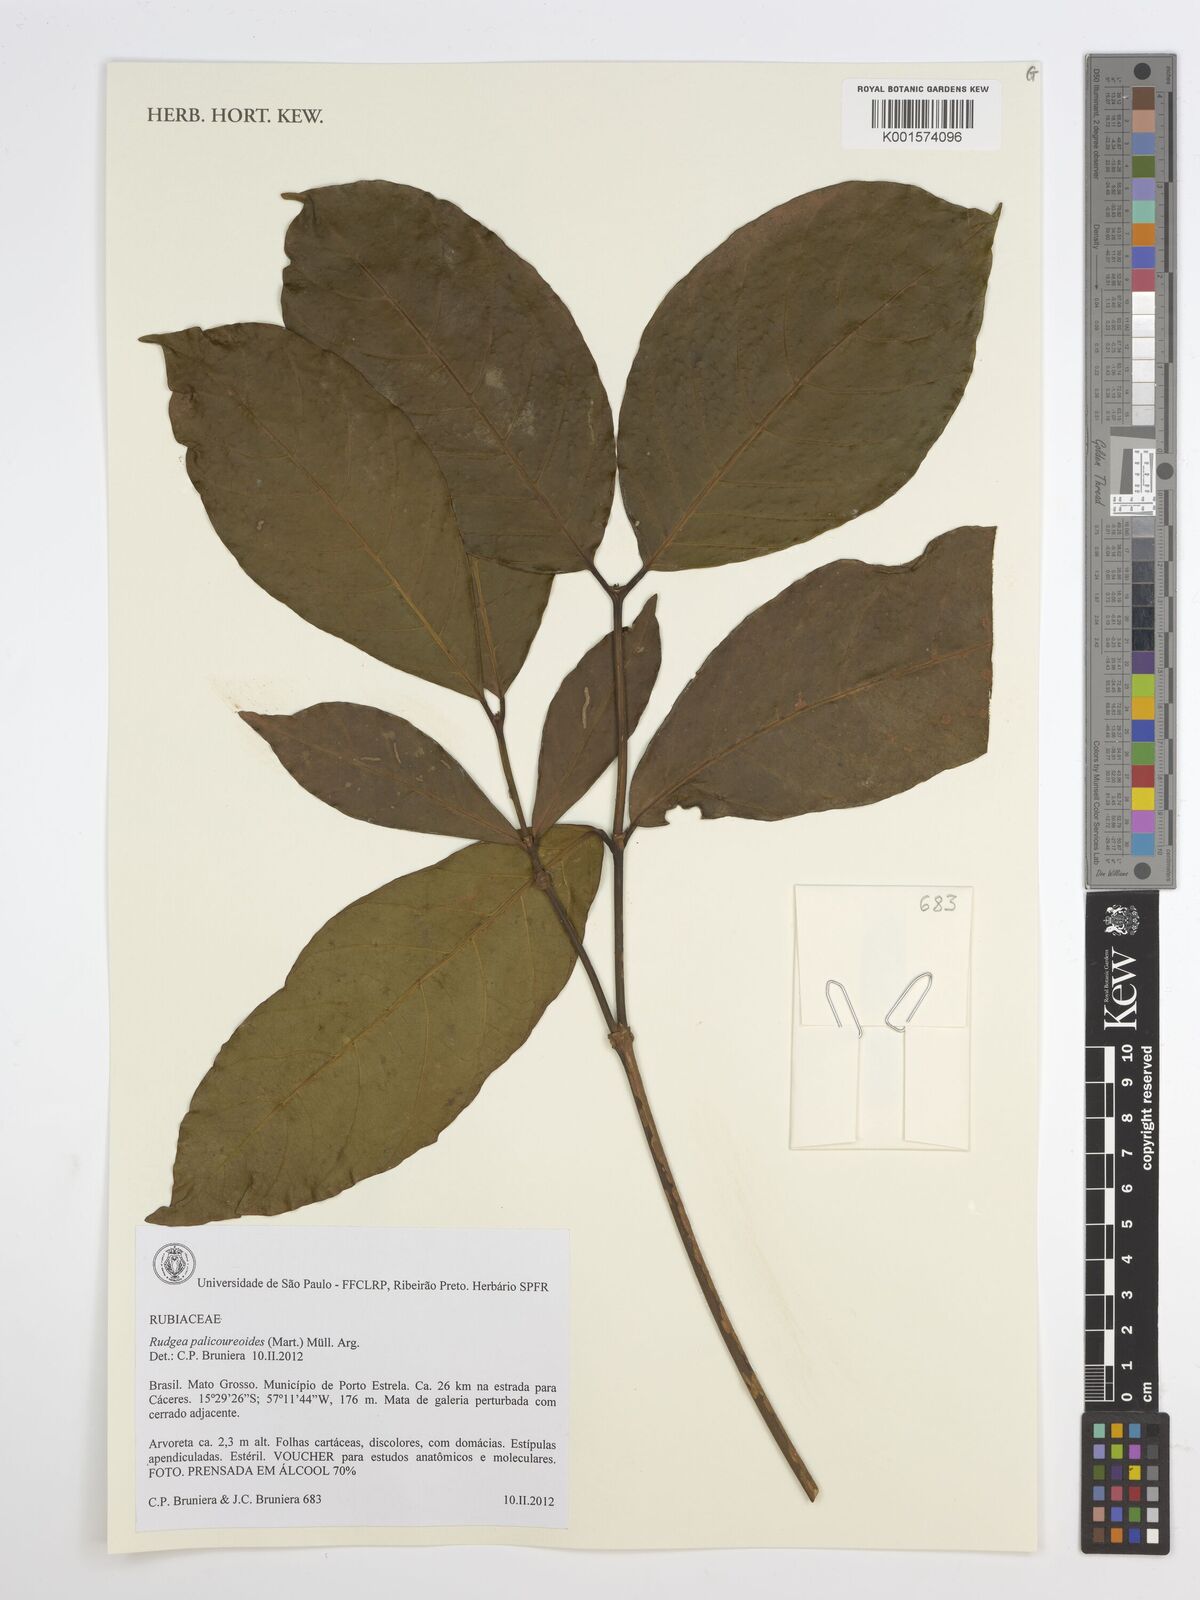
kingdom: Plantae
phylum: Tracheophyta
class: Magnoliopsida
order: Gentianales
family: Rubiaceae
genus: Rudgea
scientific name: Rudgea palicoureoides
